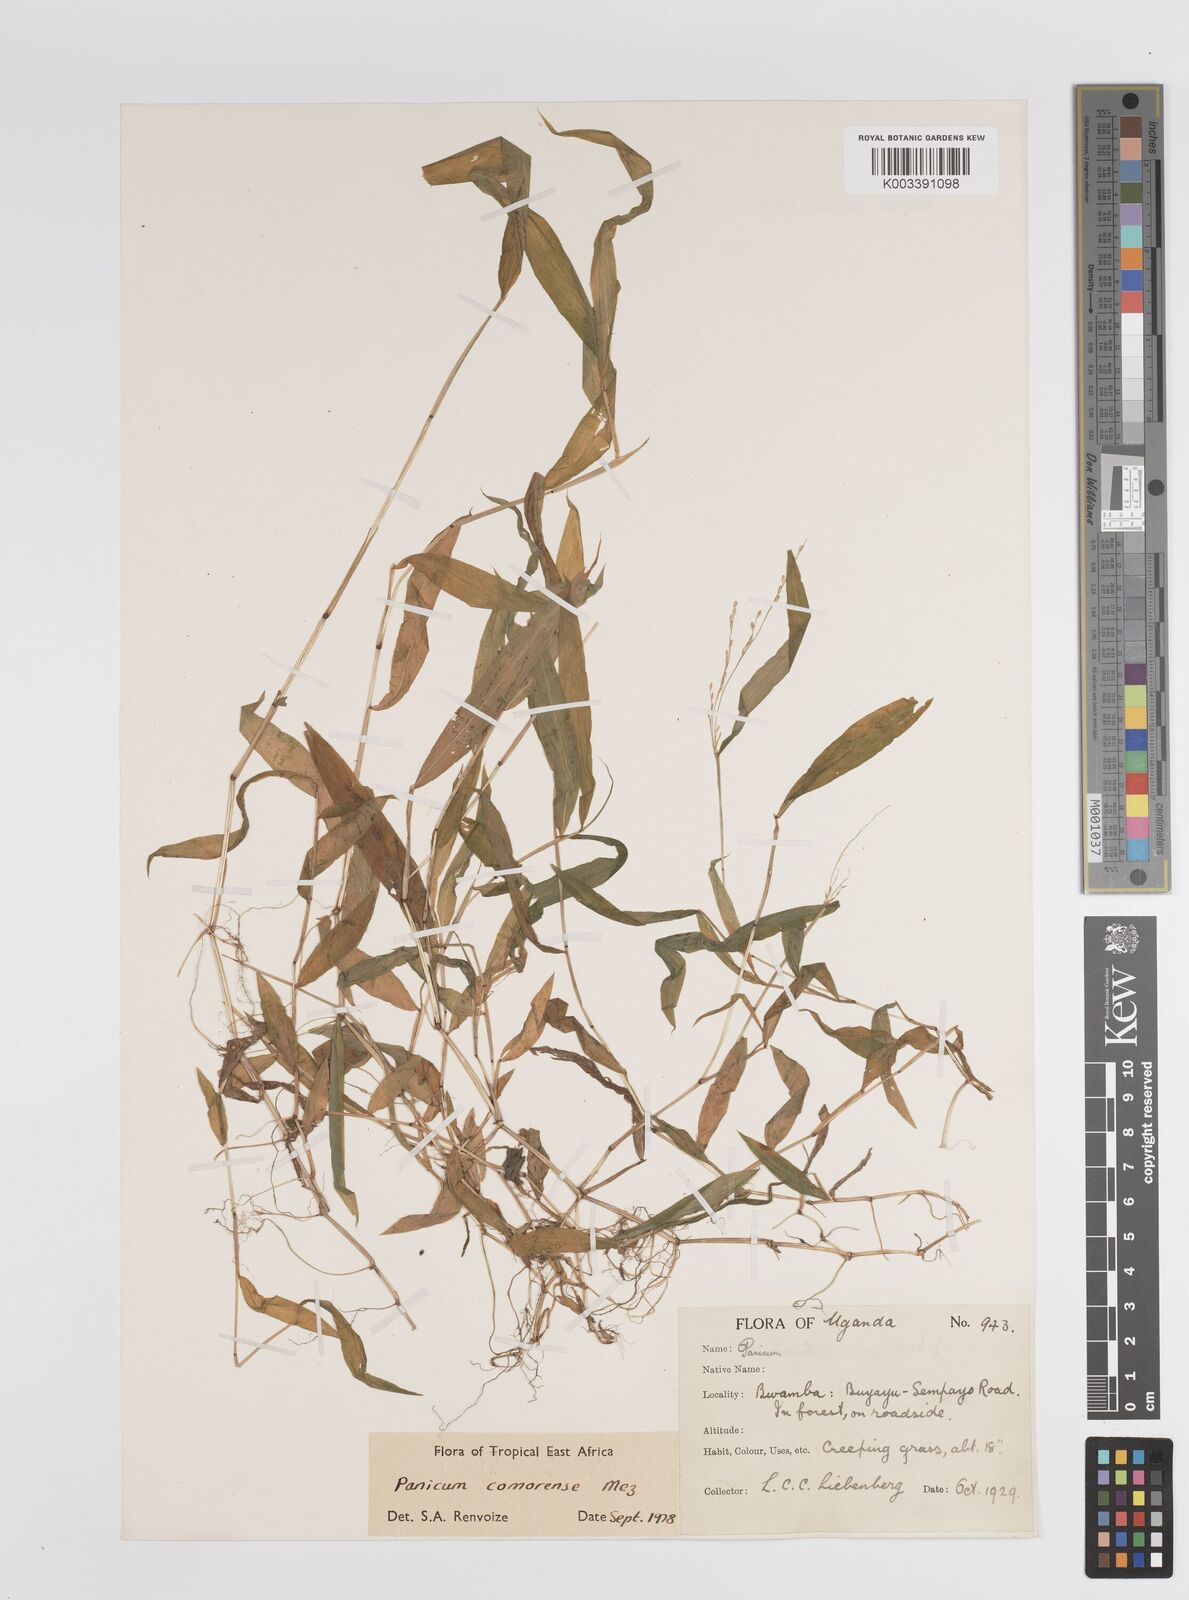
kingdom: Plantae
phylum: Tracheophyta
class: Liliopsida
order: Poales
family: Poaceae
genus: Panicum
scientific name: Panicum comorense
